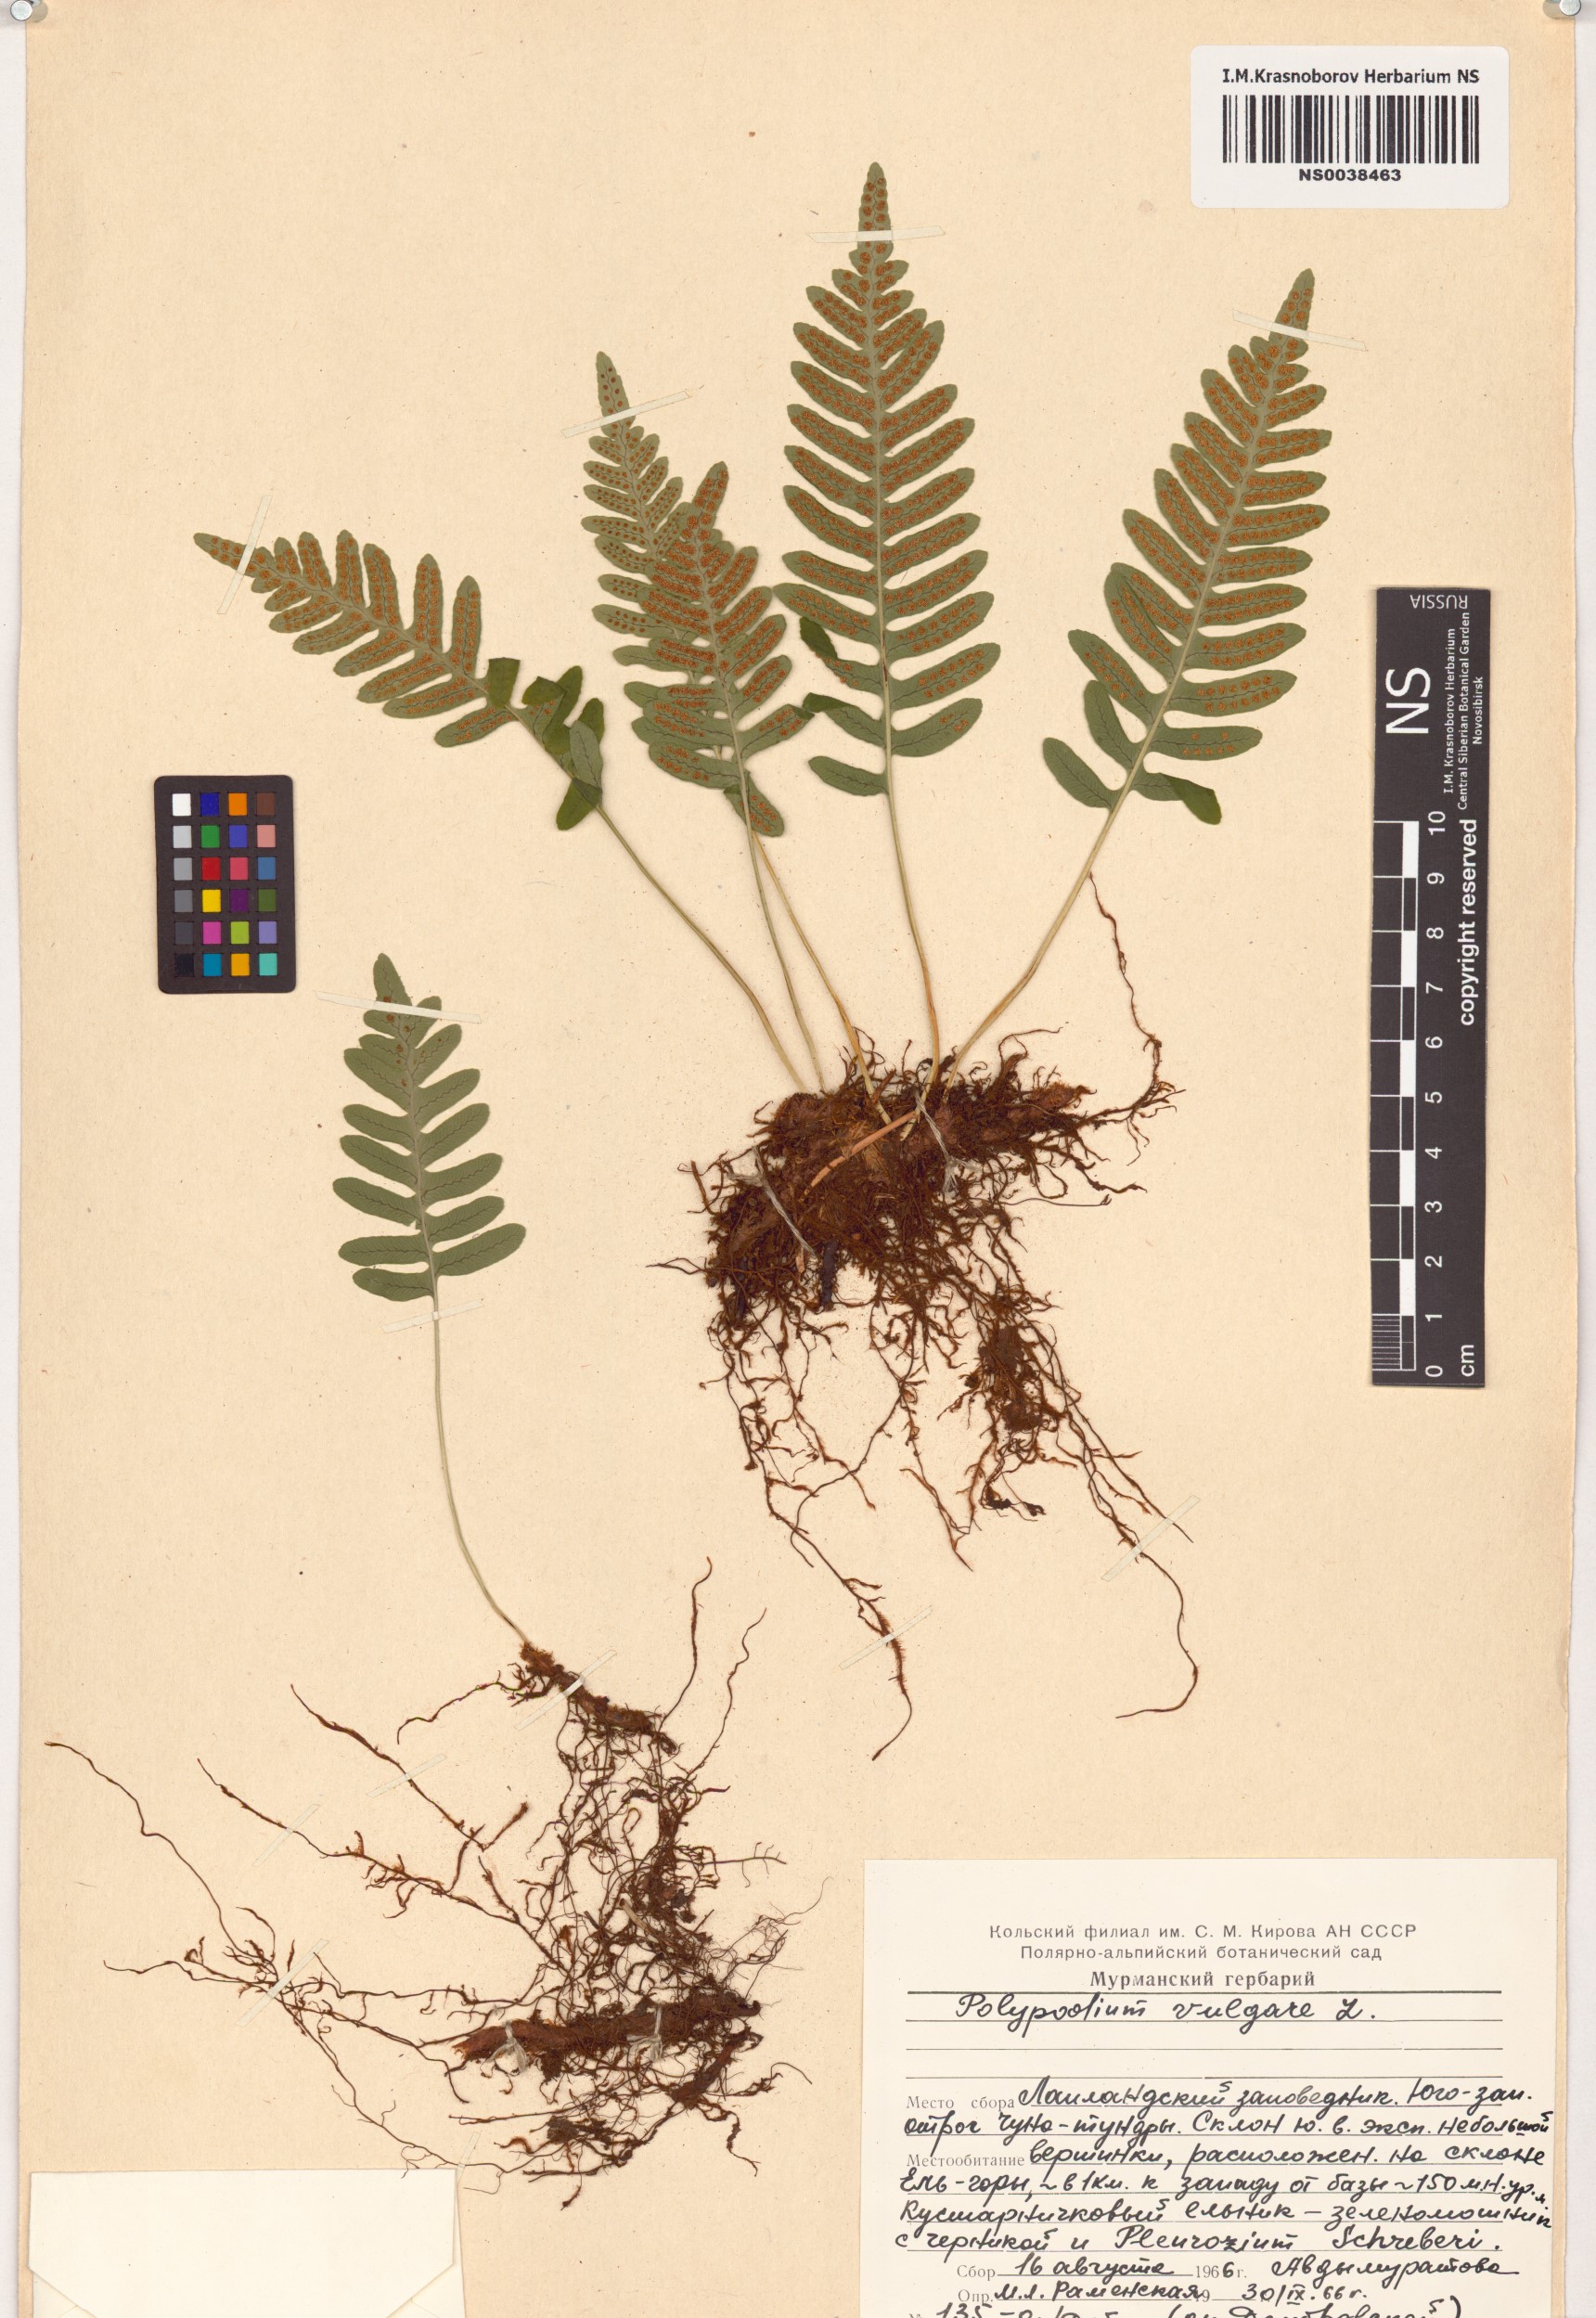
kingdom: Plantae
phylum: Tracheophyta
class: Polypodiopsida
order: Polypodiales
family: Polypodiaceae
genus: Polypodium
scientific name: Polypodium vulgare
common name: Common polypody
